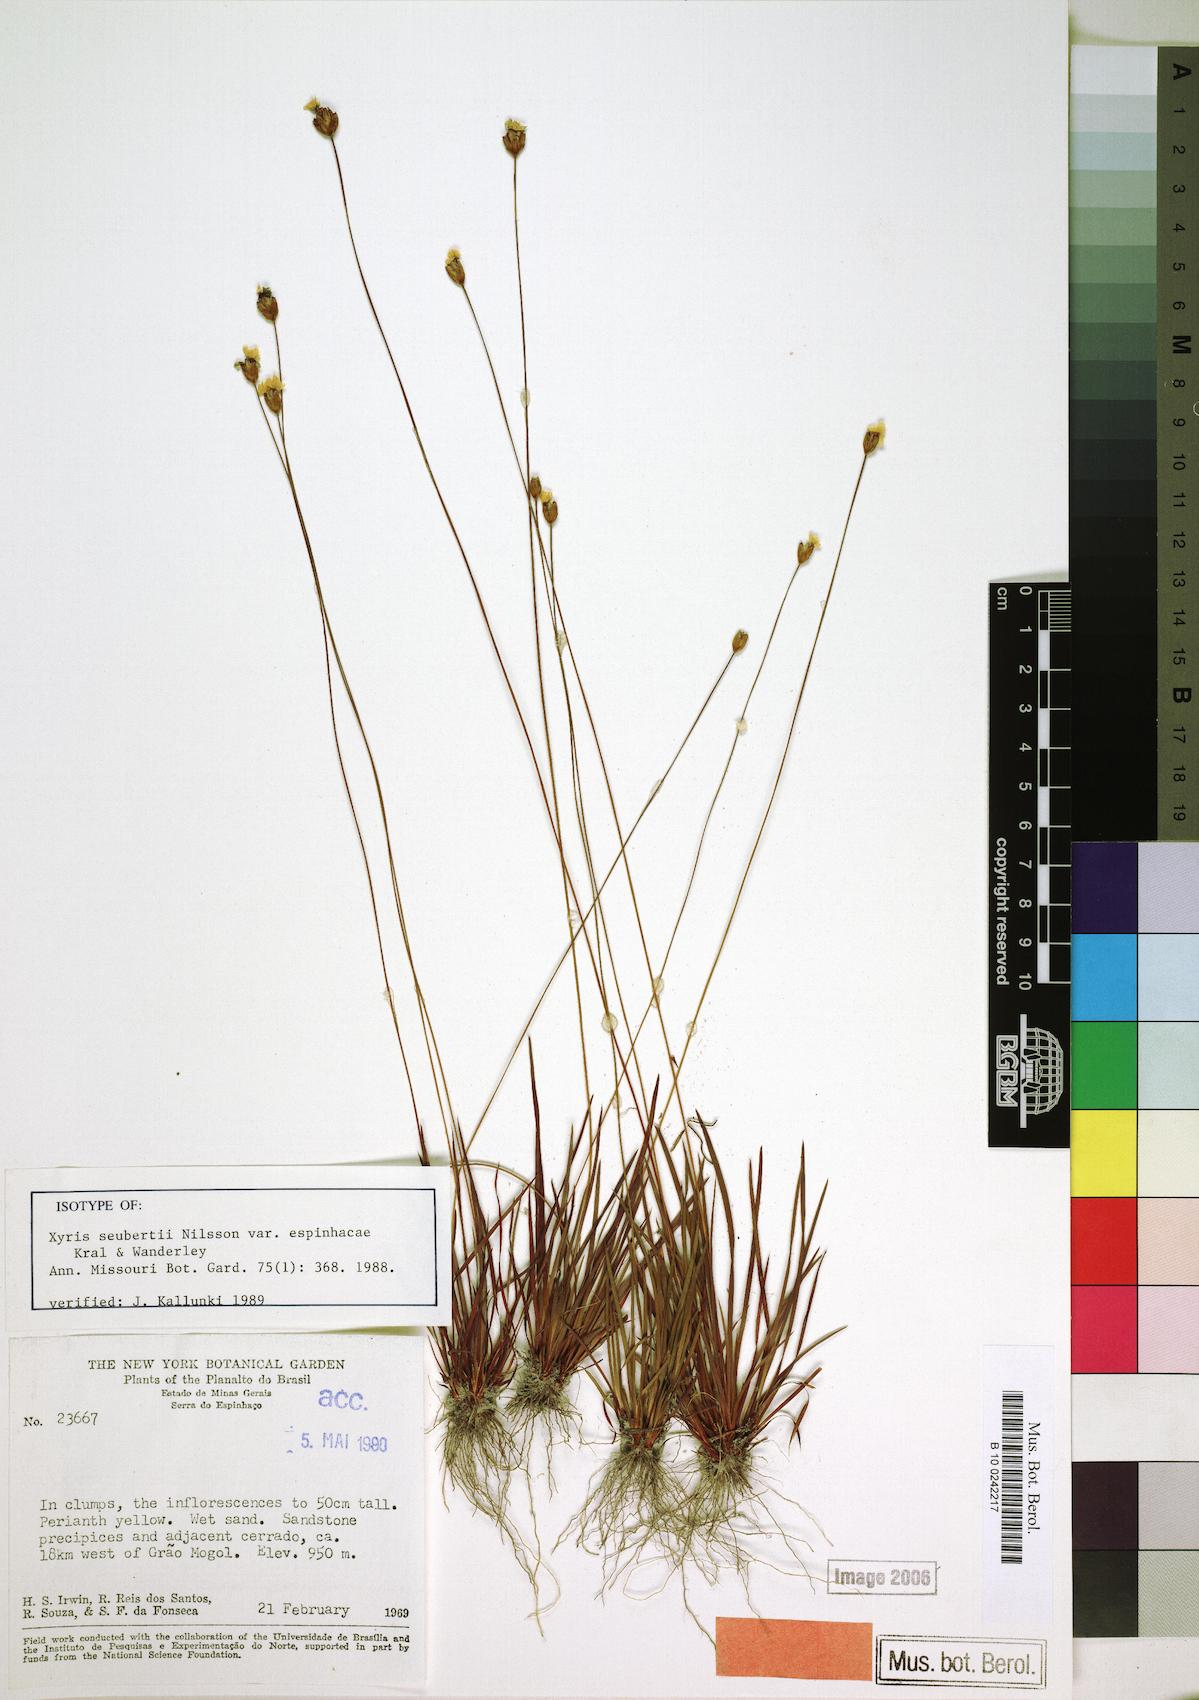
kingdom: Plantae
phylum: Tracheophyta
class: Liliopsida
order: Poales
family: Xyridaceae
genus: Xyris
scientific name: Xyris seubertii
